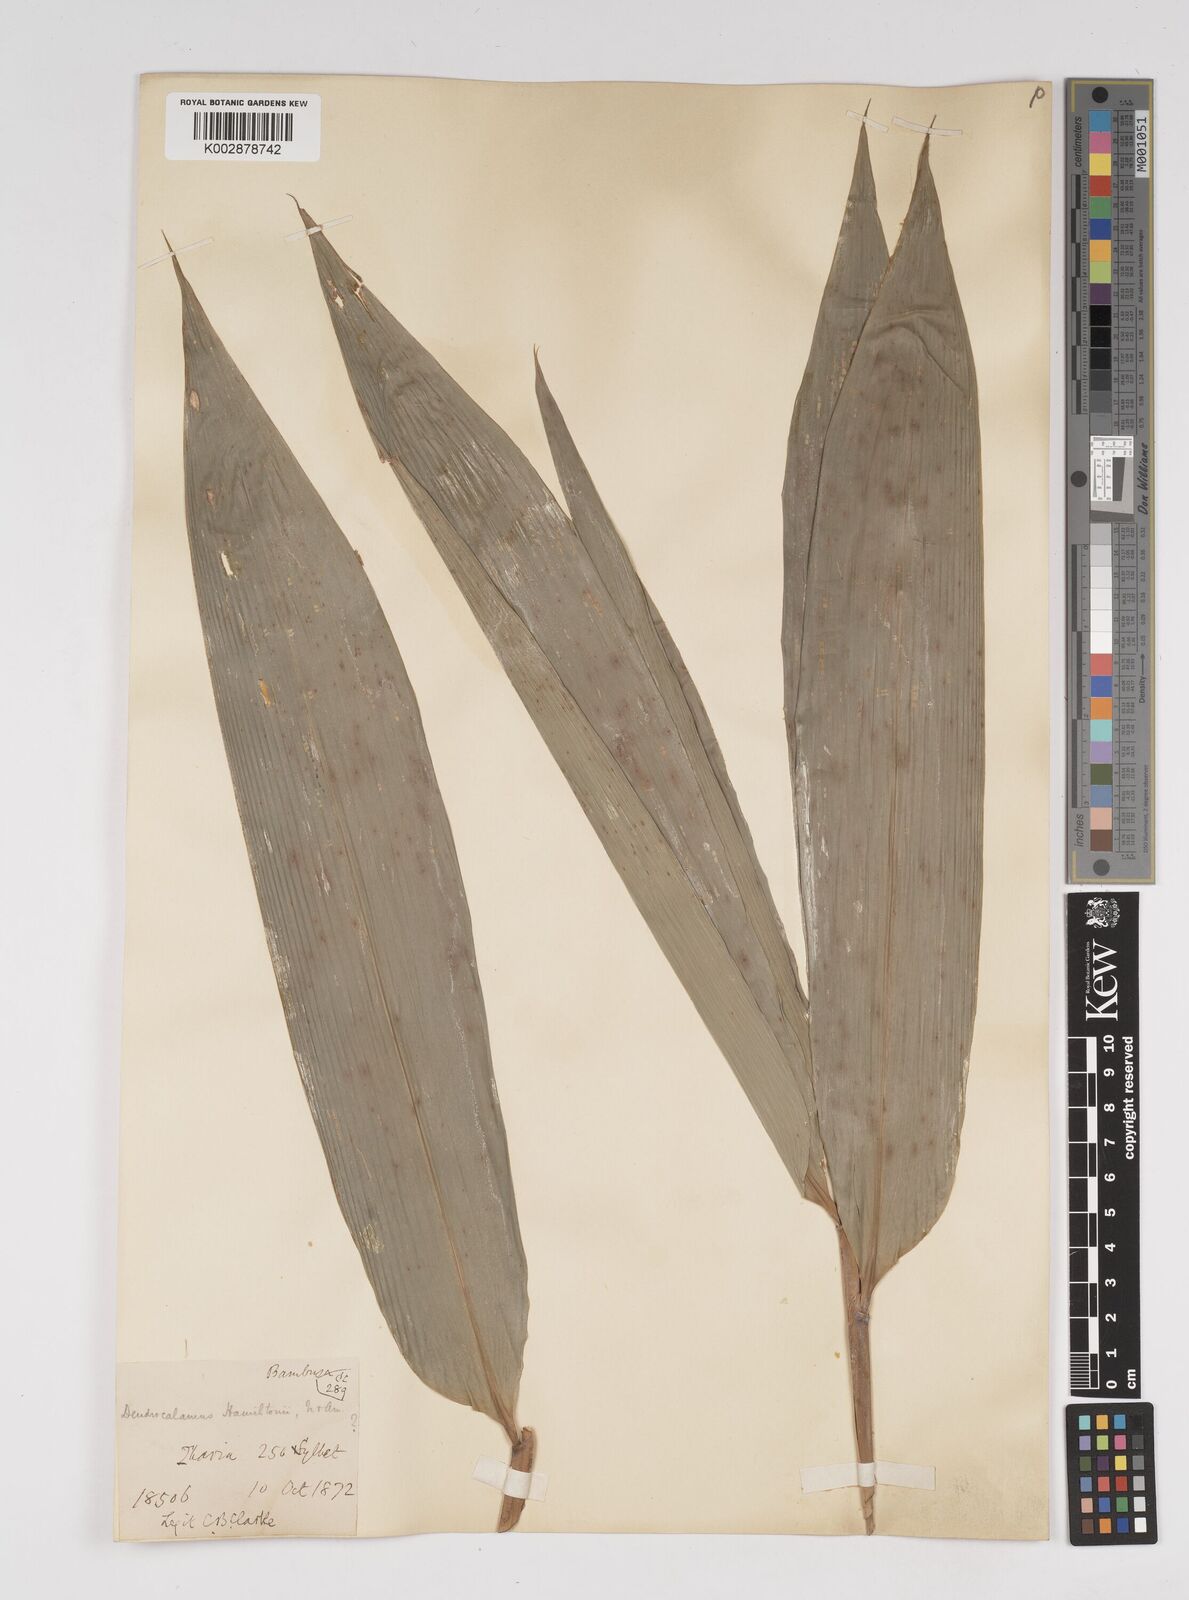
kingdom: Plantae
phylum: Tracheophyta
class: Liliopsida
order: Poales
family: Poaceae
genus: Dendrocalamus
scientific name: Dendrocalamus hamiltonii
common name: Tama bamboo
